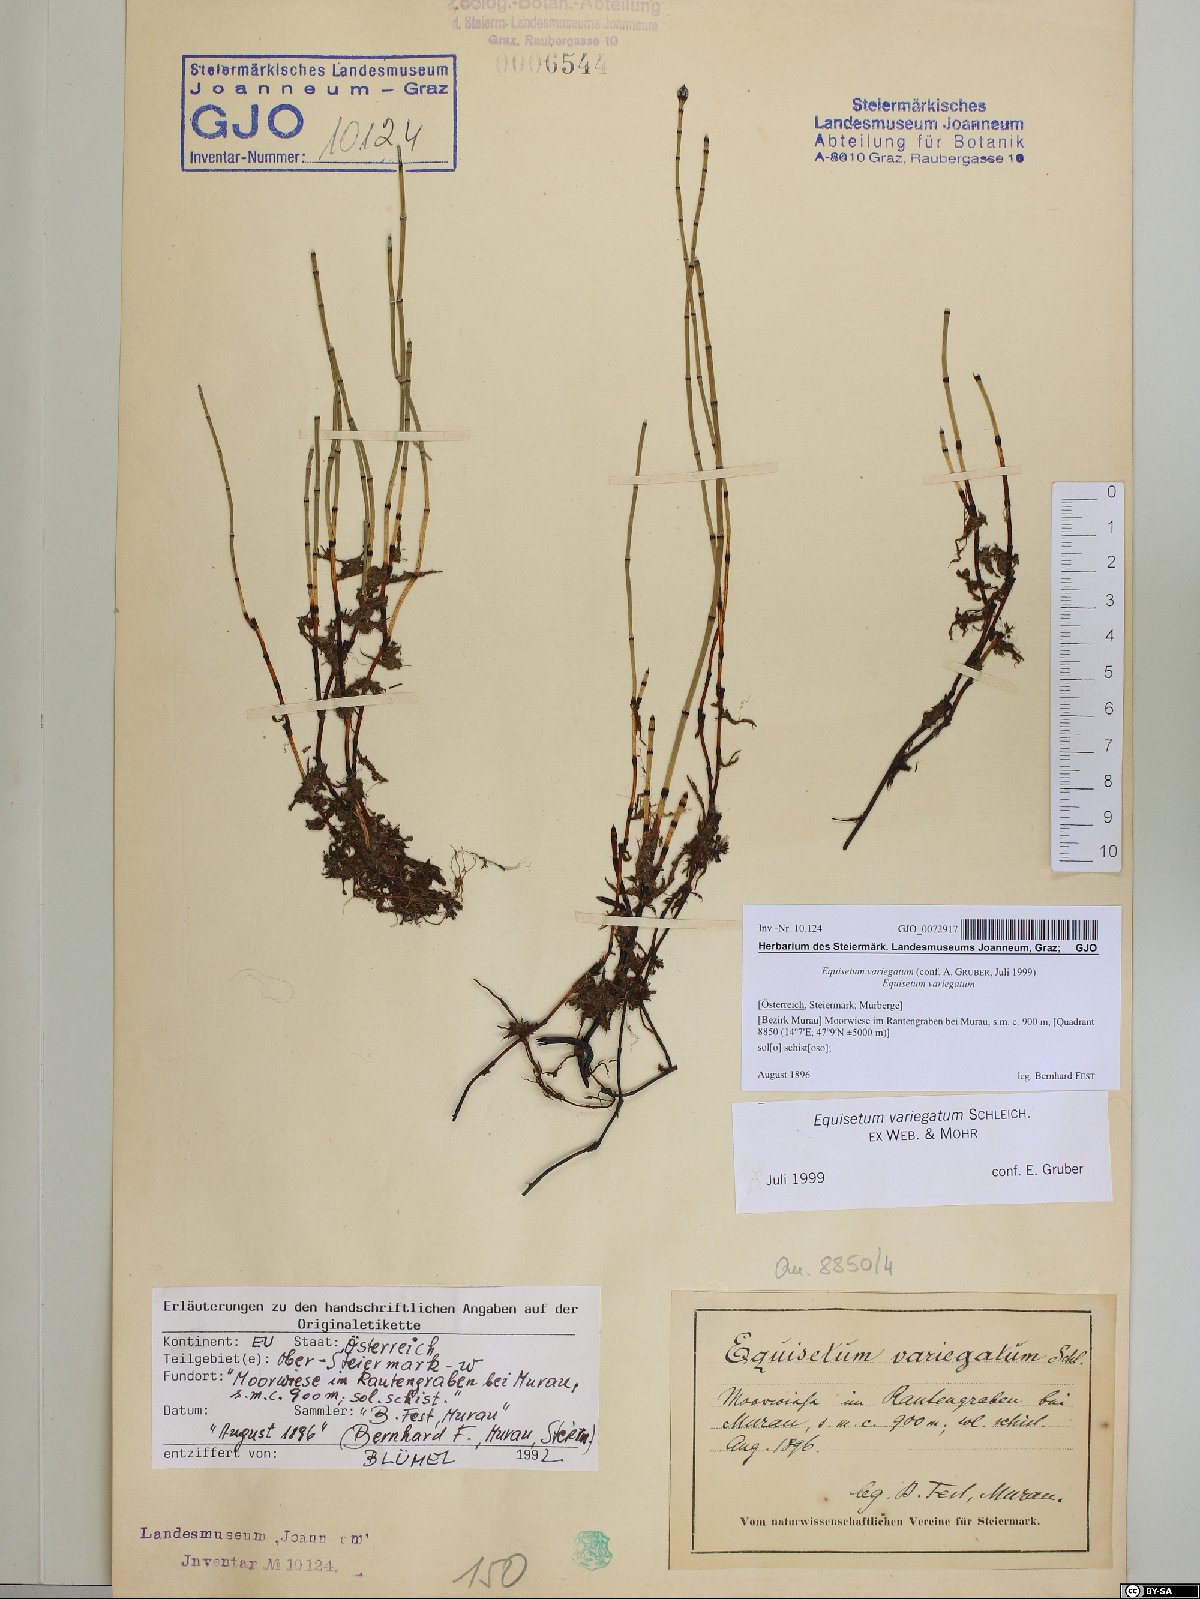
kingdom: Plantae
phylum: Tracheophyta
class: Polypodiopsida
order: Equisetales
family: Equisetaceae
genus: Equisetum
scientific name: Equisetum variegatum
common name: Variegated horsetail
